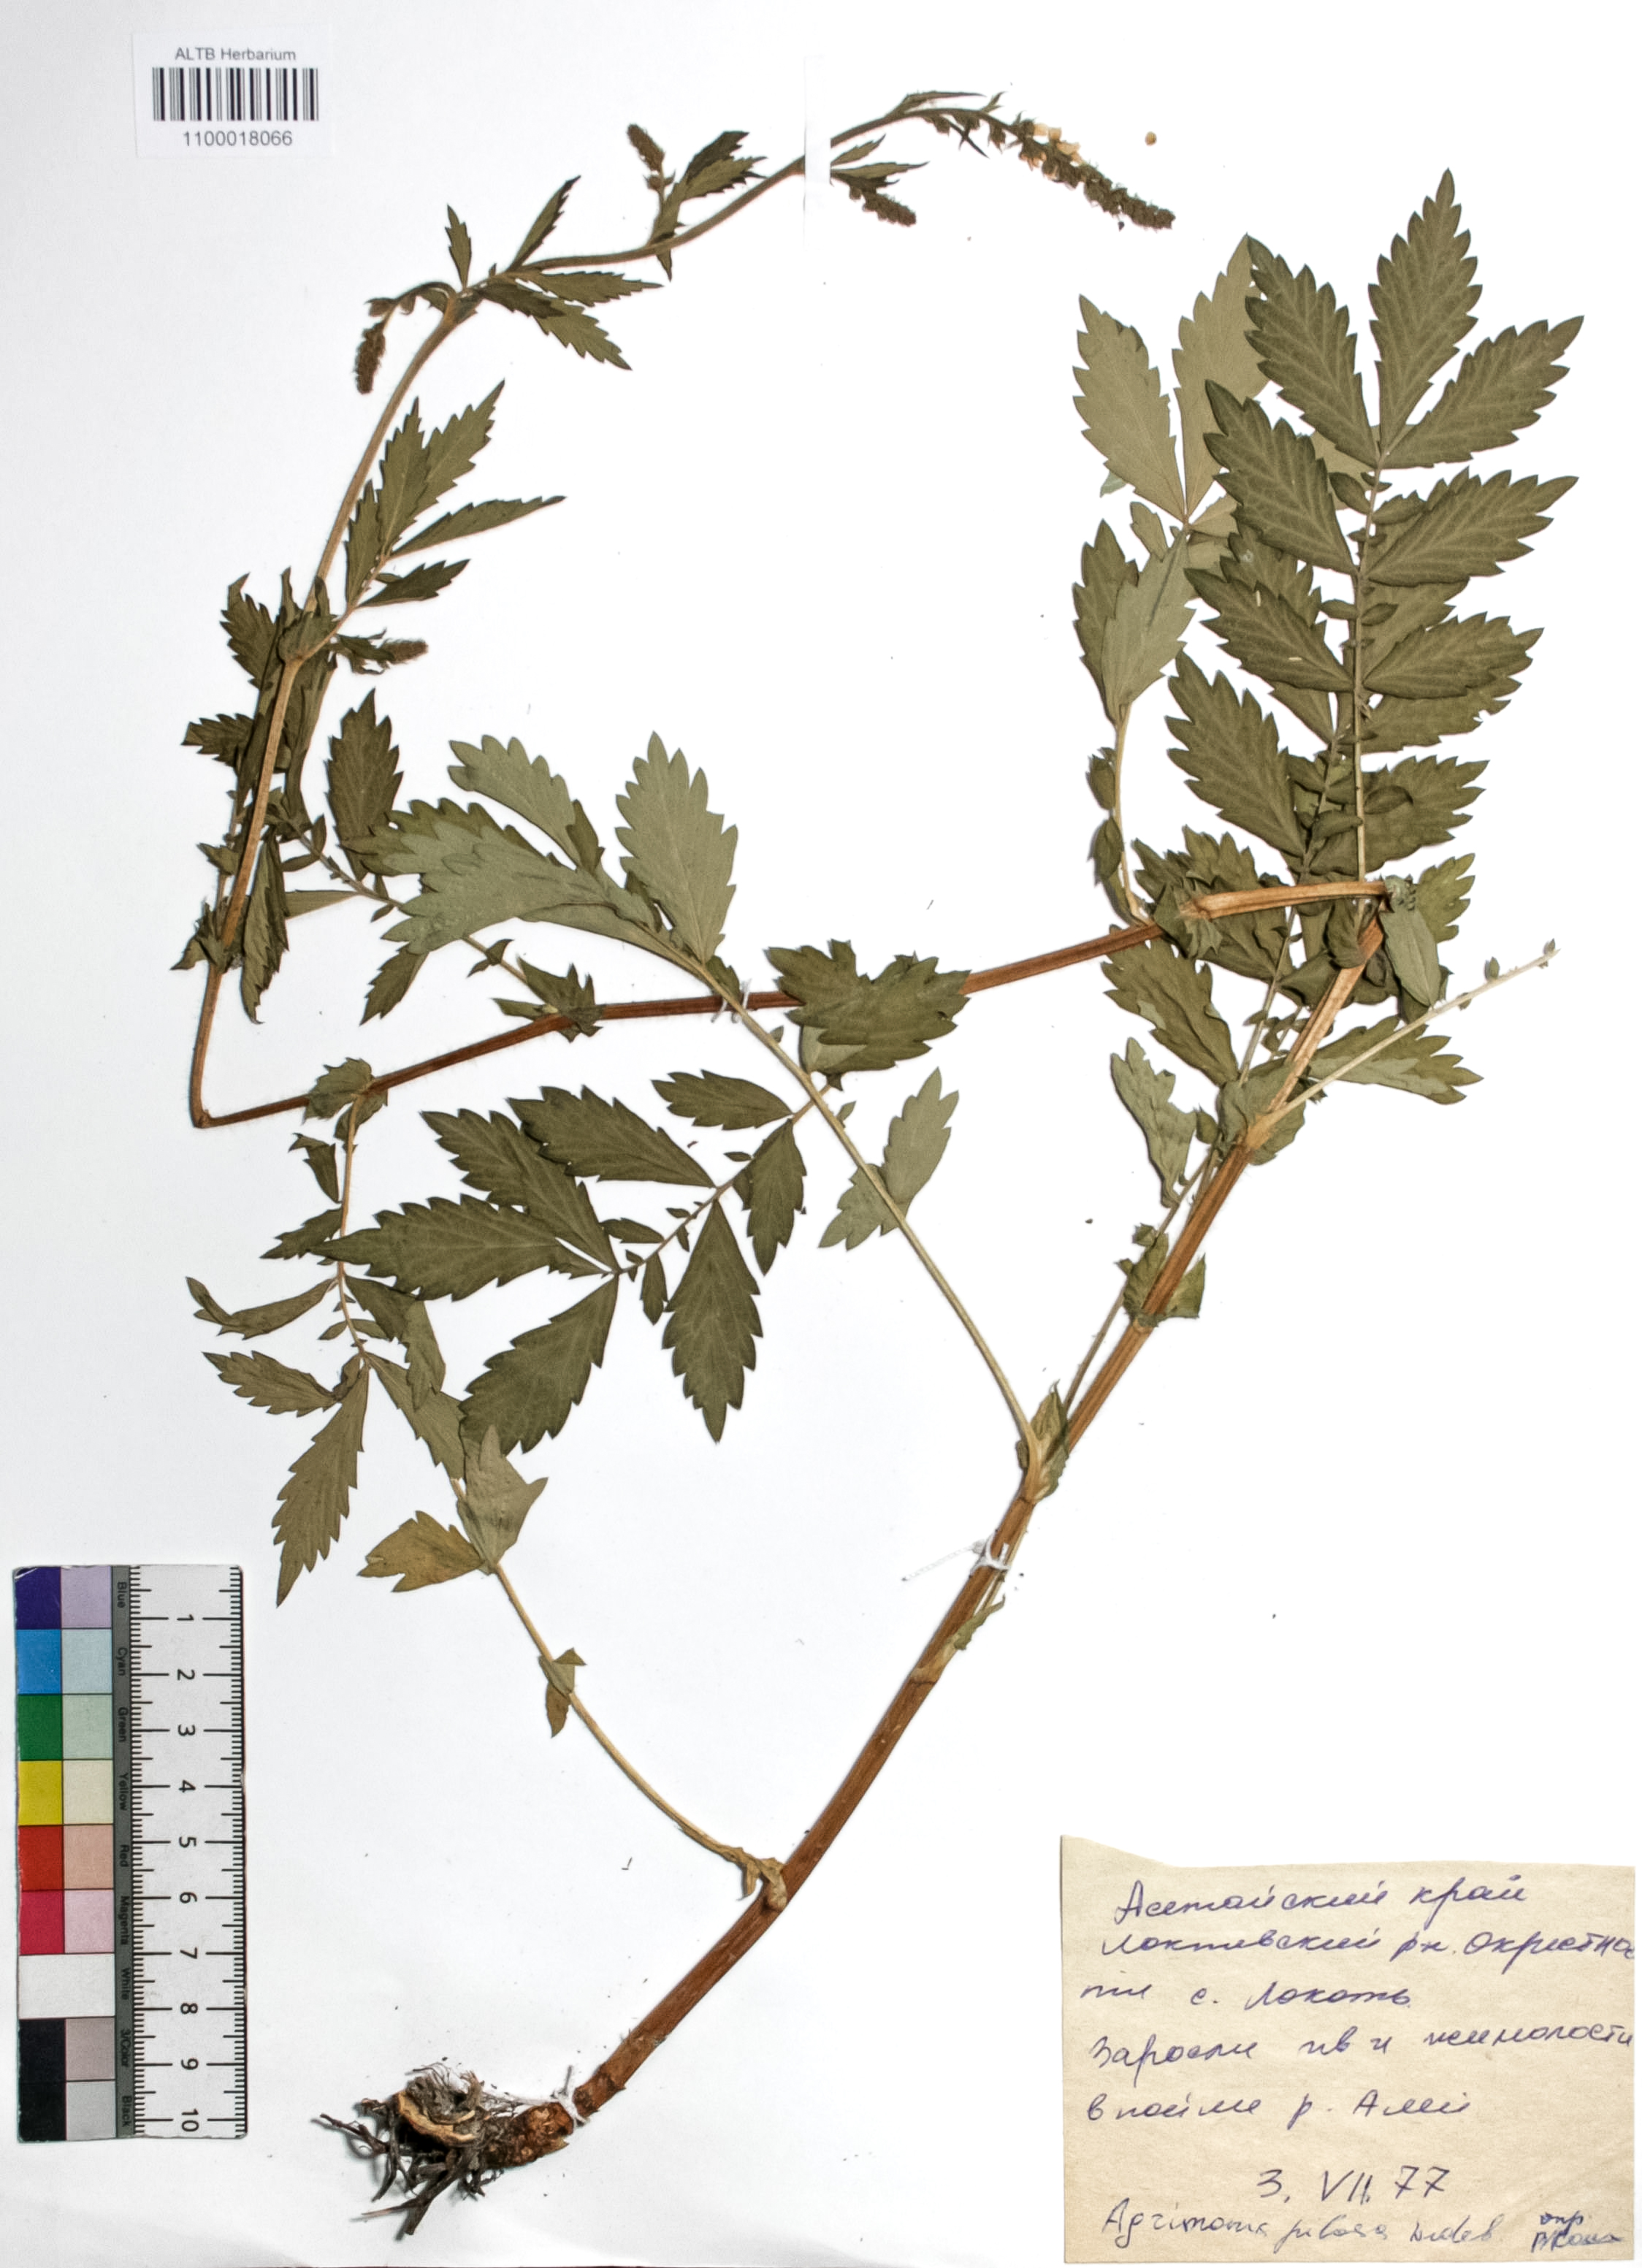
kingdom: Plantae
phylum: Tracheophyta
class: Magnoliopsida
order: Rosales
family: Rosaceae
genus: Agrimonia
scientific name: Agrimonia pilosa
